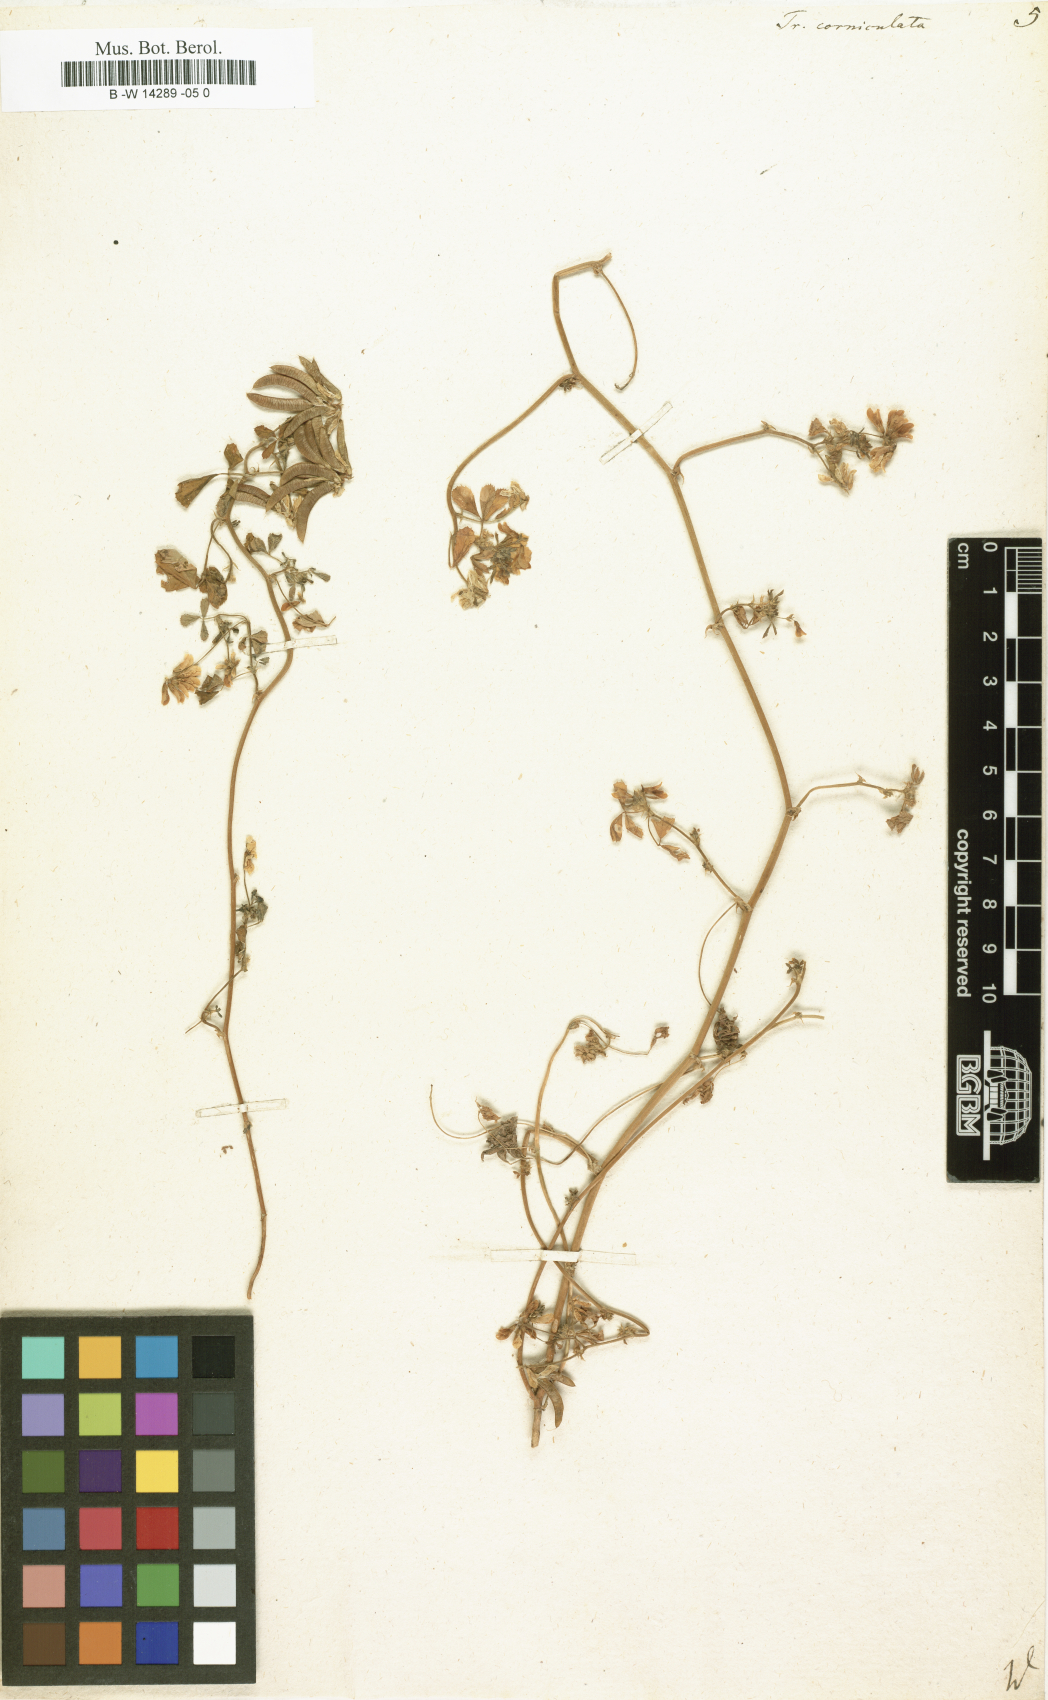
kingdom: Plantae
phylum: Tracheophyta
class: Magnoliopsida
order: Fabales
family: Fabaceae
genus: Trigonella
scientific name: Trigonella balansae
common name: Sickle-fruited fenugreek
